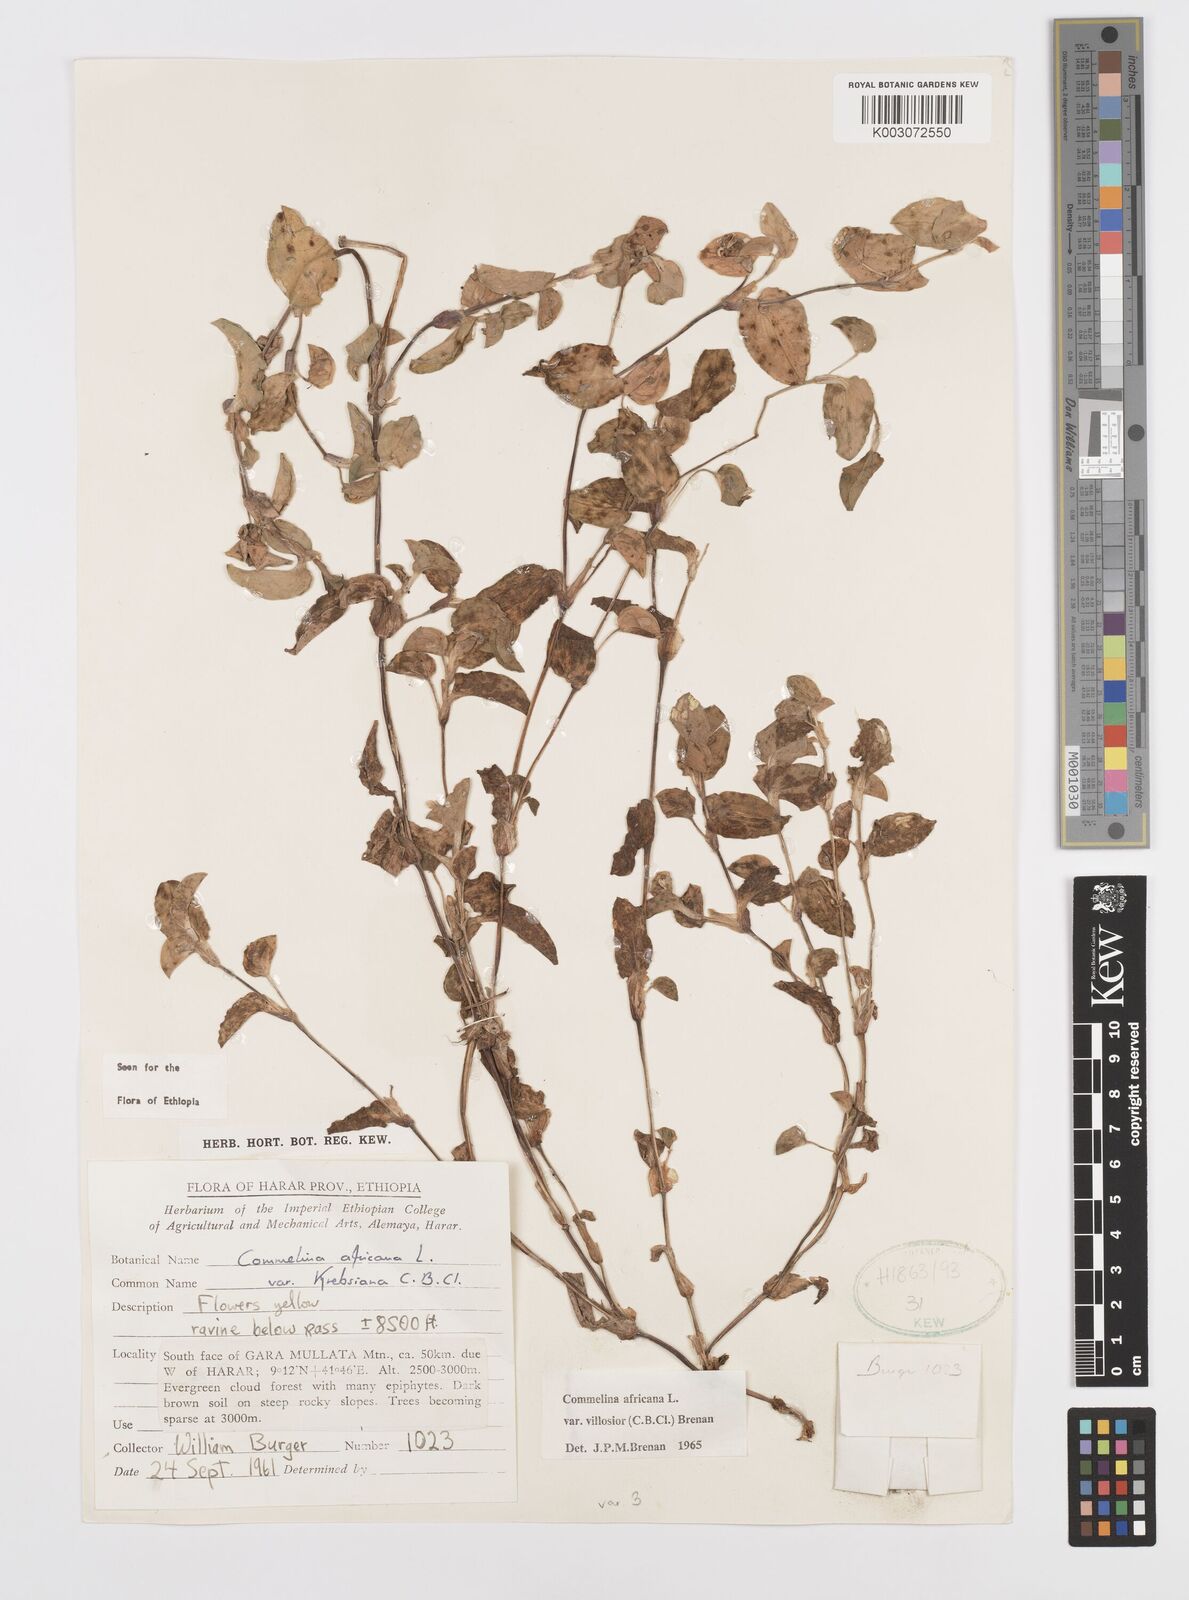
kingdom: Plantae
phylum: Tracheophyta
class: Liliopsida
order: Commelinales
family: Commelinaceae
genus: Commelina
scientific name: Commelina africana
